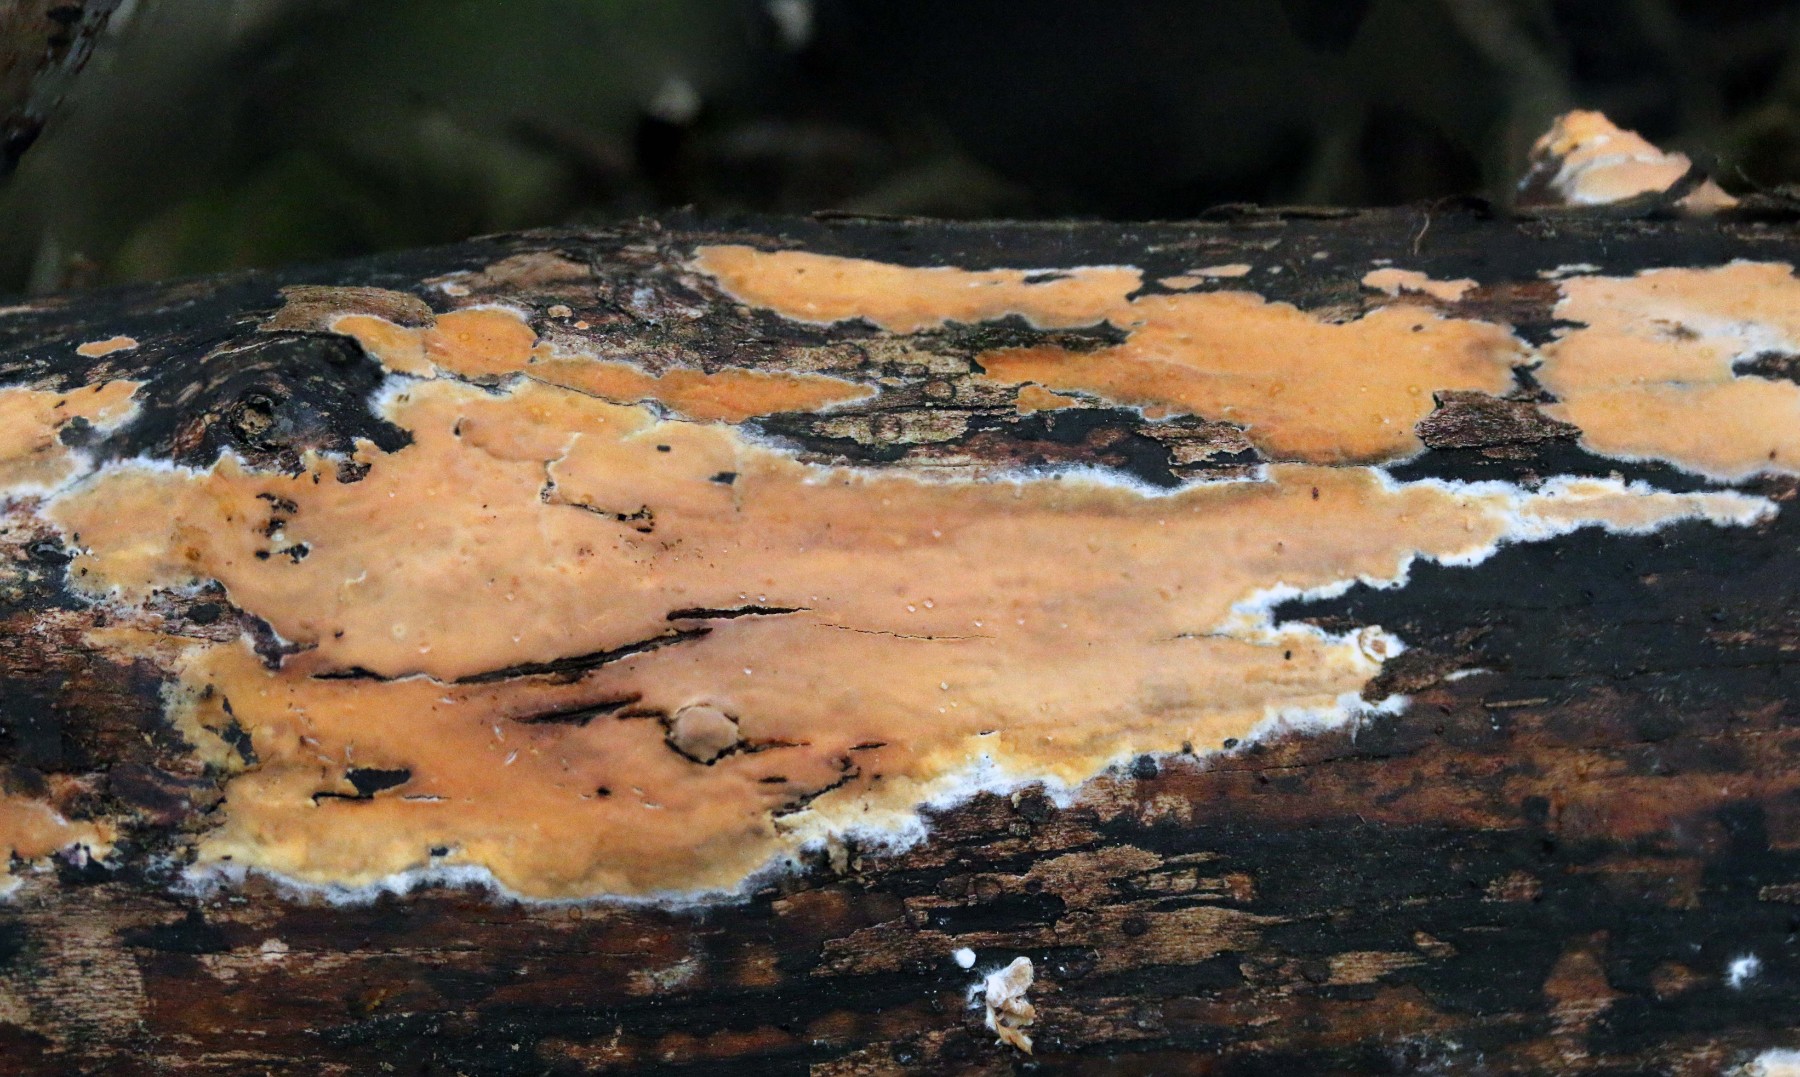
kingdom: Fungi
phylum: Basidiomycota
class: Agaricomycetes
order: Russulales
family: Peniophoraceae
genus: Peniophora
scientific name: Peniophora incarnata
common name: laksefarvet voksskind
